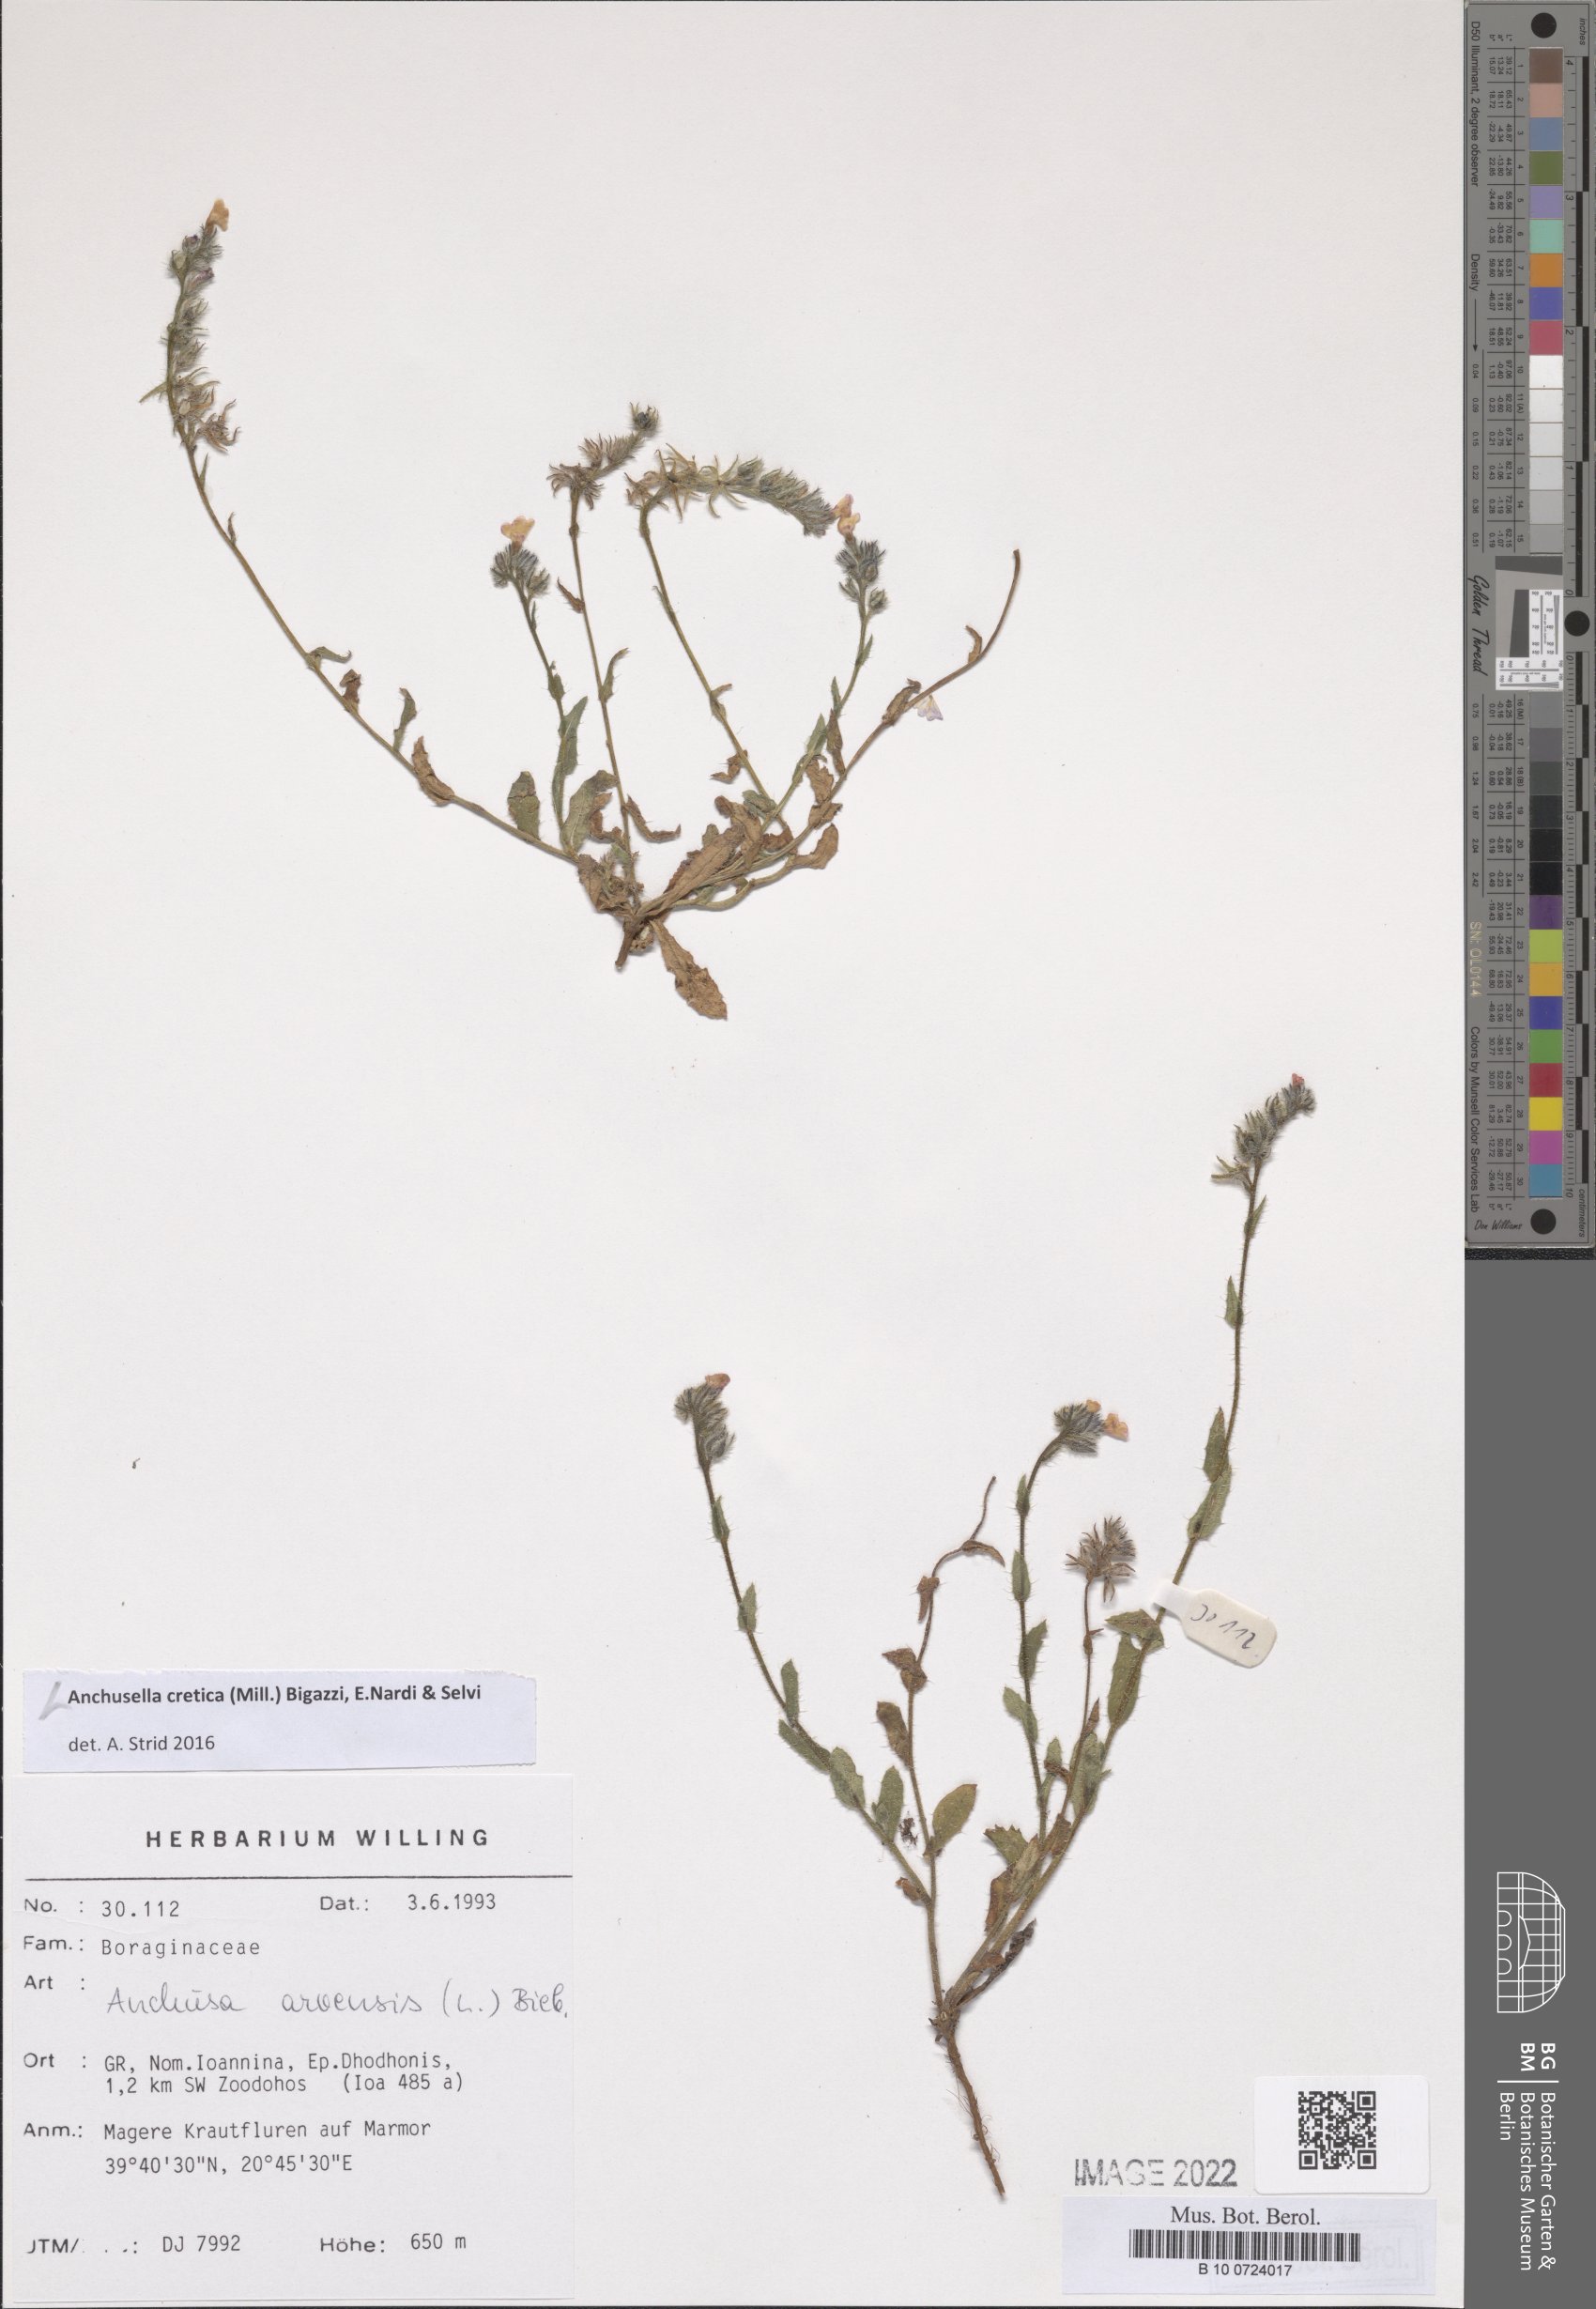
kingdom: Plantae
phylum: Tracheophyta
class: Magnoliopsida
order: Boraginales
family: Boraginaceae
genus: Anchusella
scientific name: Anchusella cretica
